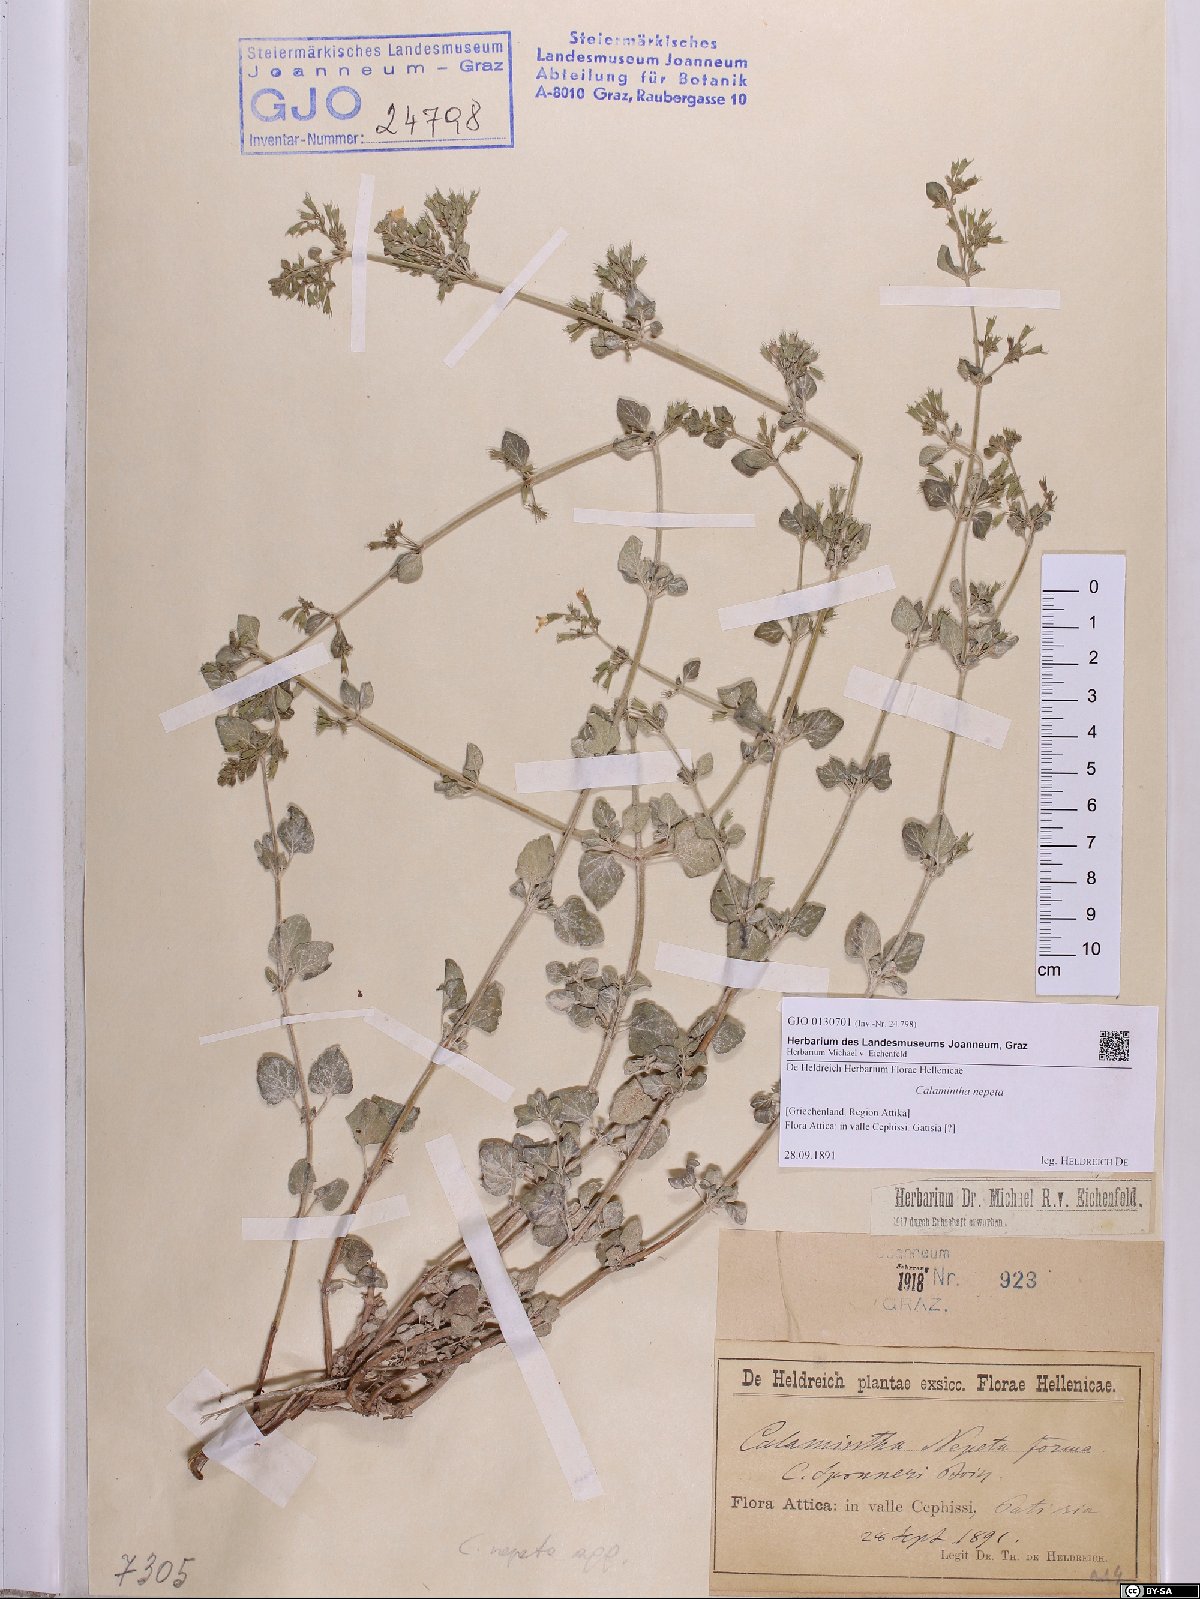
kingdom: Plantae
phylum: Tracheophyta
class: Magnoliopsida
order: Lamiales
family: Lamiaceae
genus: Clinopodium
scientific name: Clinopodium nepeta
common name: Lesser calamint
